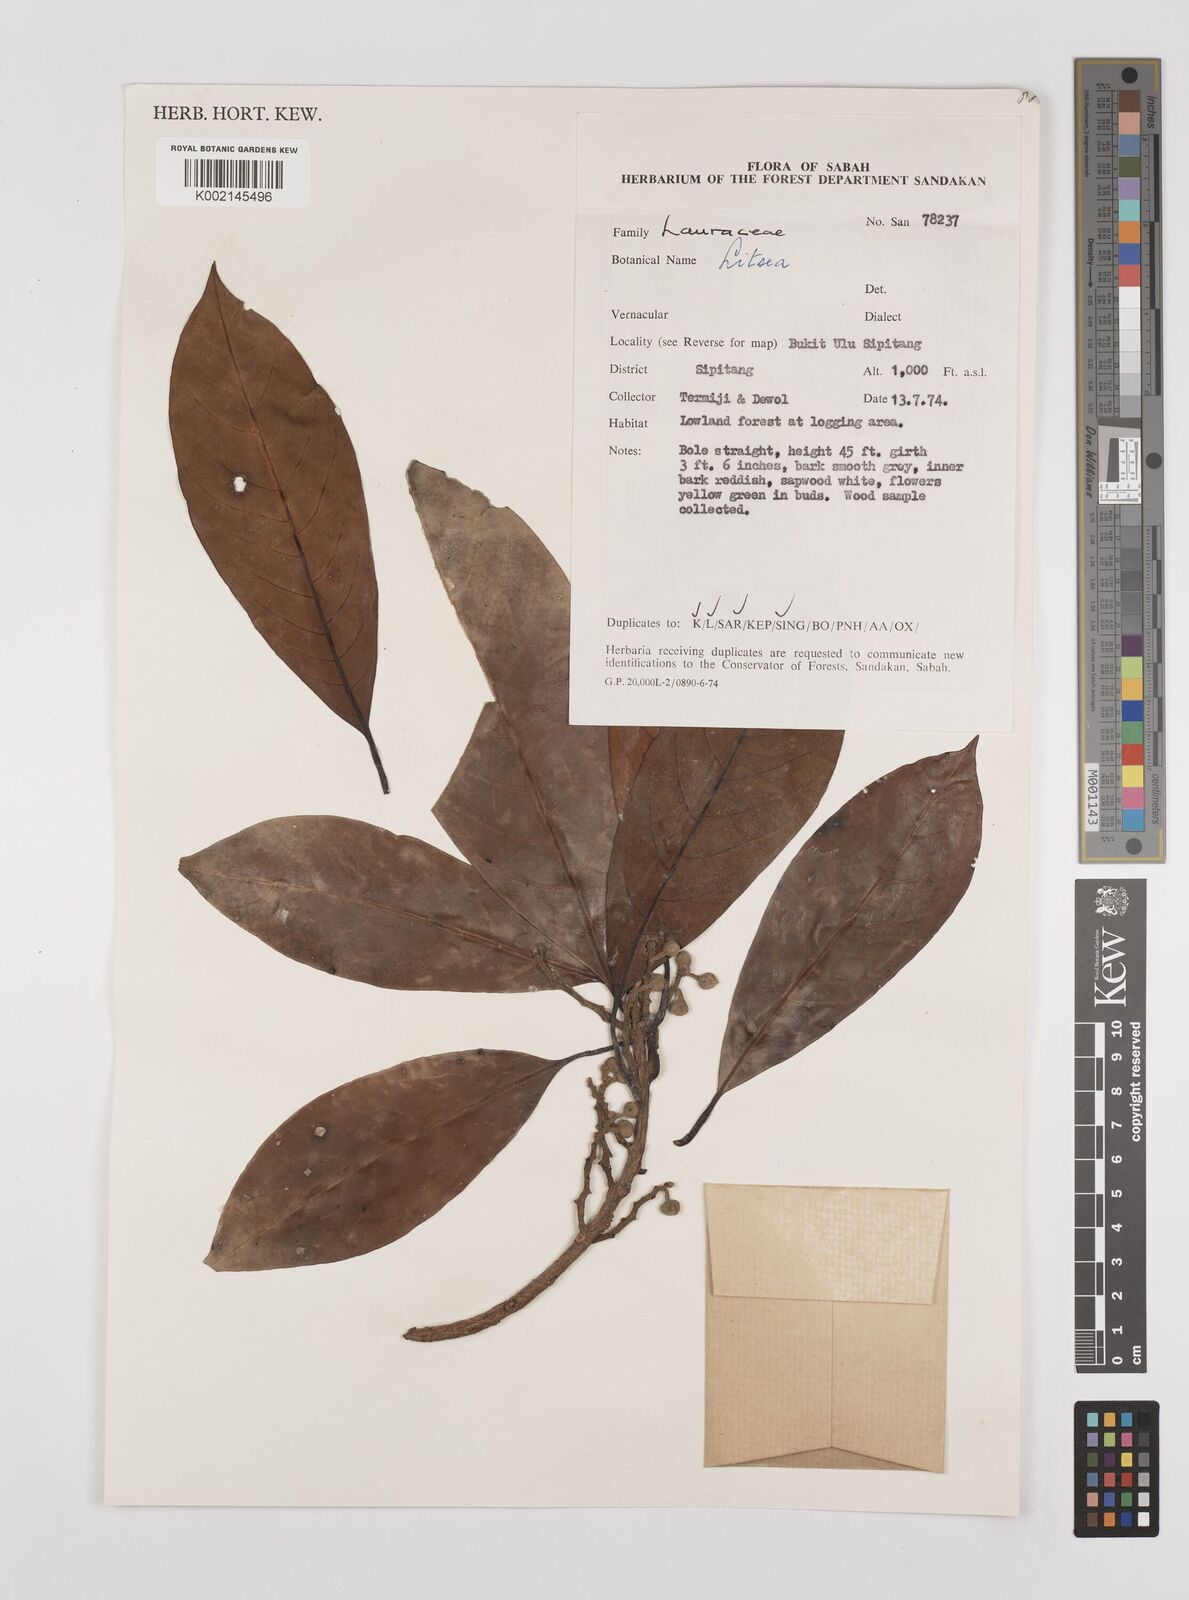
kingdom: Plantae
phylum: Tracheophyta
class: Magnoliopsida
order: Laurales
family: Lauraceae
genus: Litsea
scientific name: Litsea
